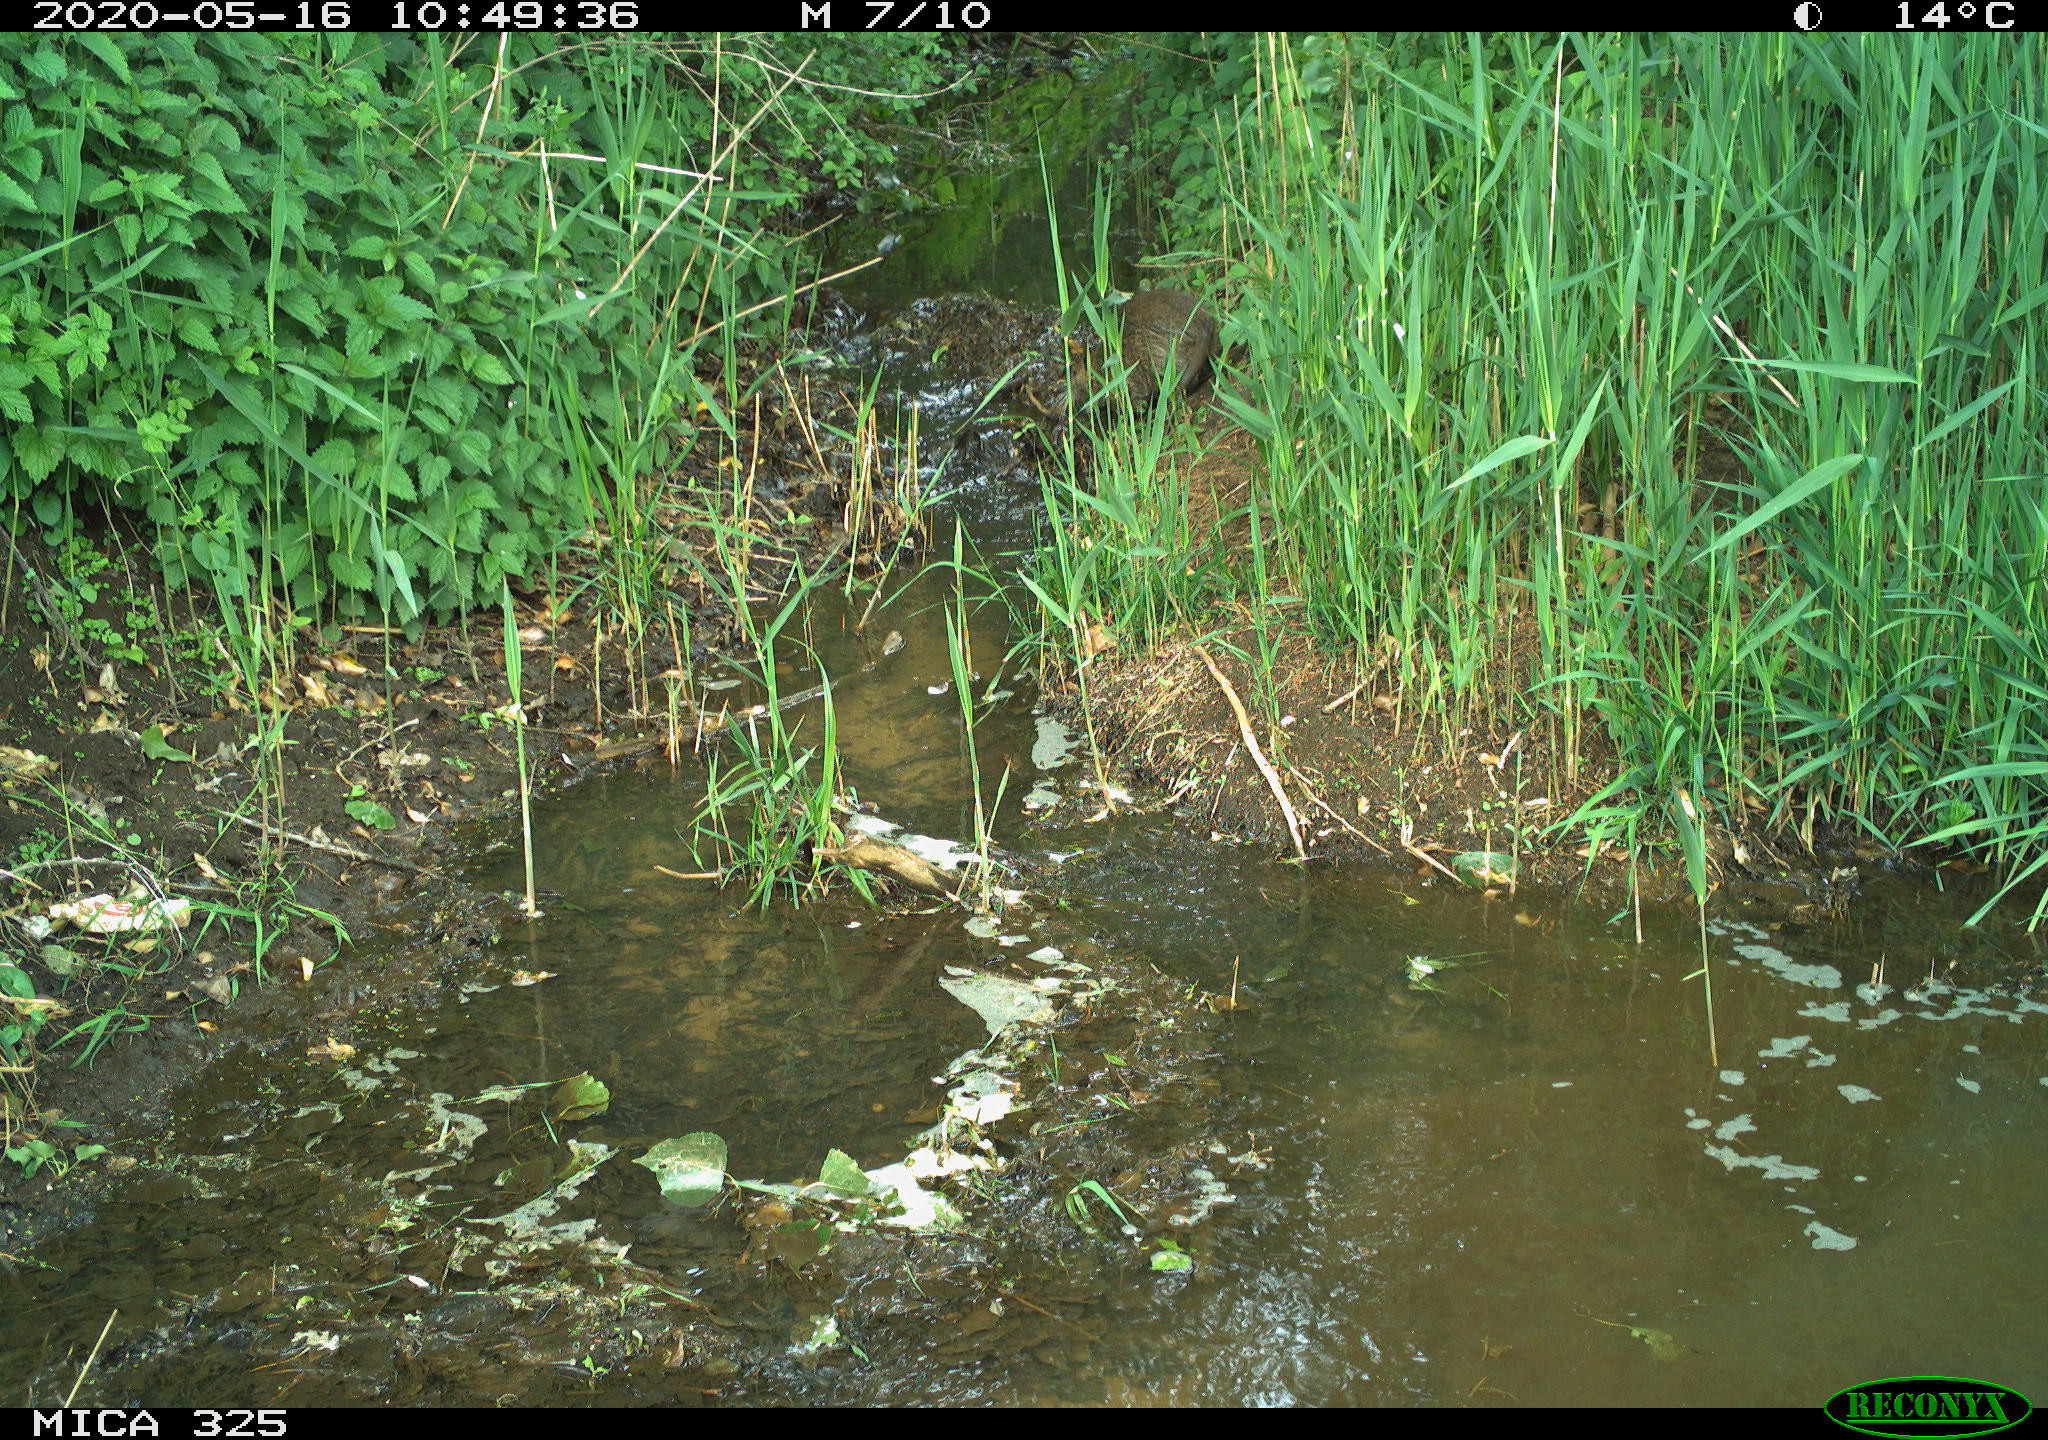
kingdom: Animalia
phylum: Chordata
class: Mammalia
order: Rodentia
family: Myocastoridae
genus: Myocastor
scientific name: Myocastor coypus
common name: Coypu
